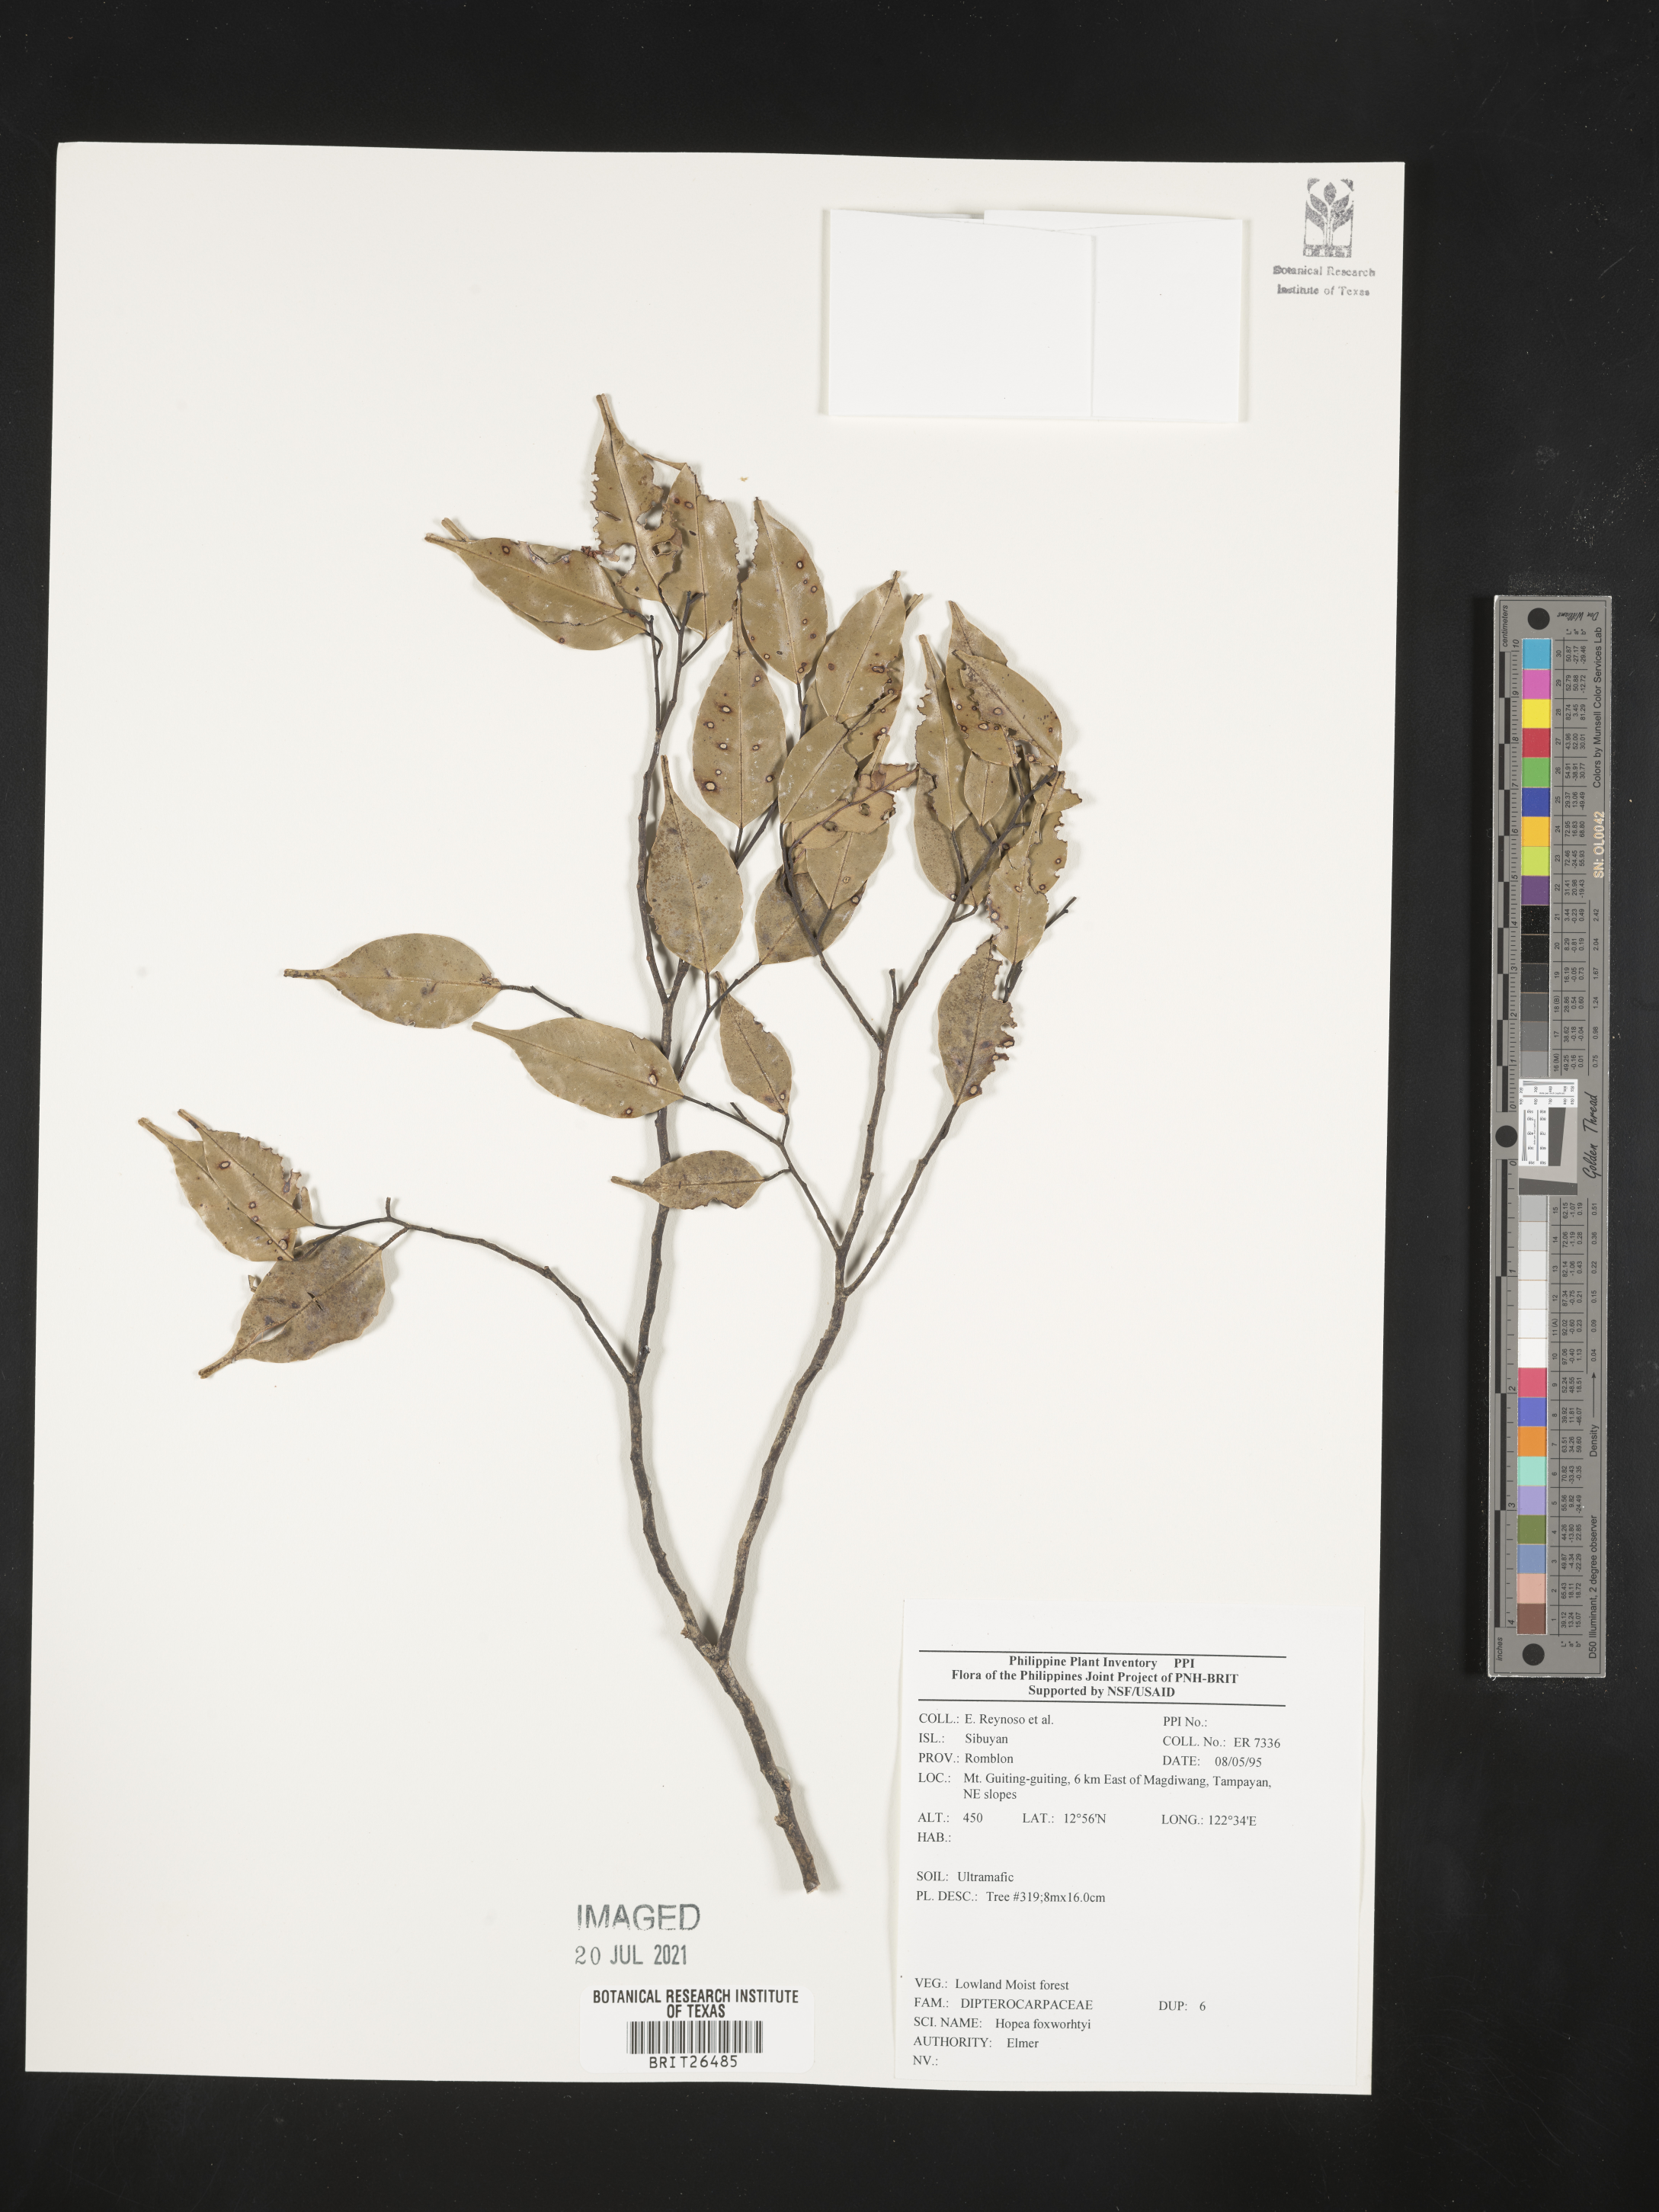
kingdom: Plantae
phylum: Tracheophyta
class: Magnoliopsida
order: Malvales
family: Dipterocarpaceae
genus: Hopea
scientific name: Hopea foxworthyi
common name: Dalingdingan
